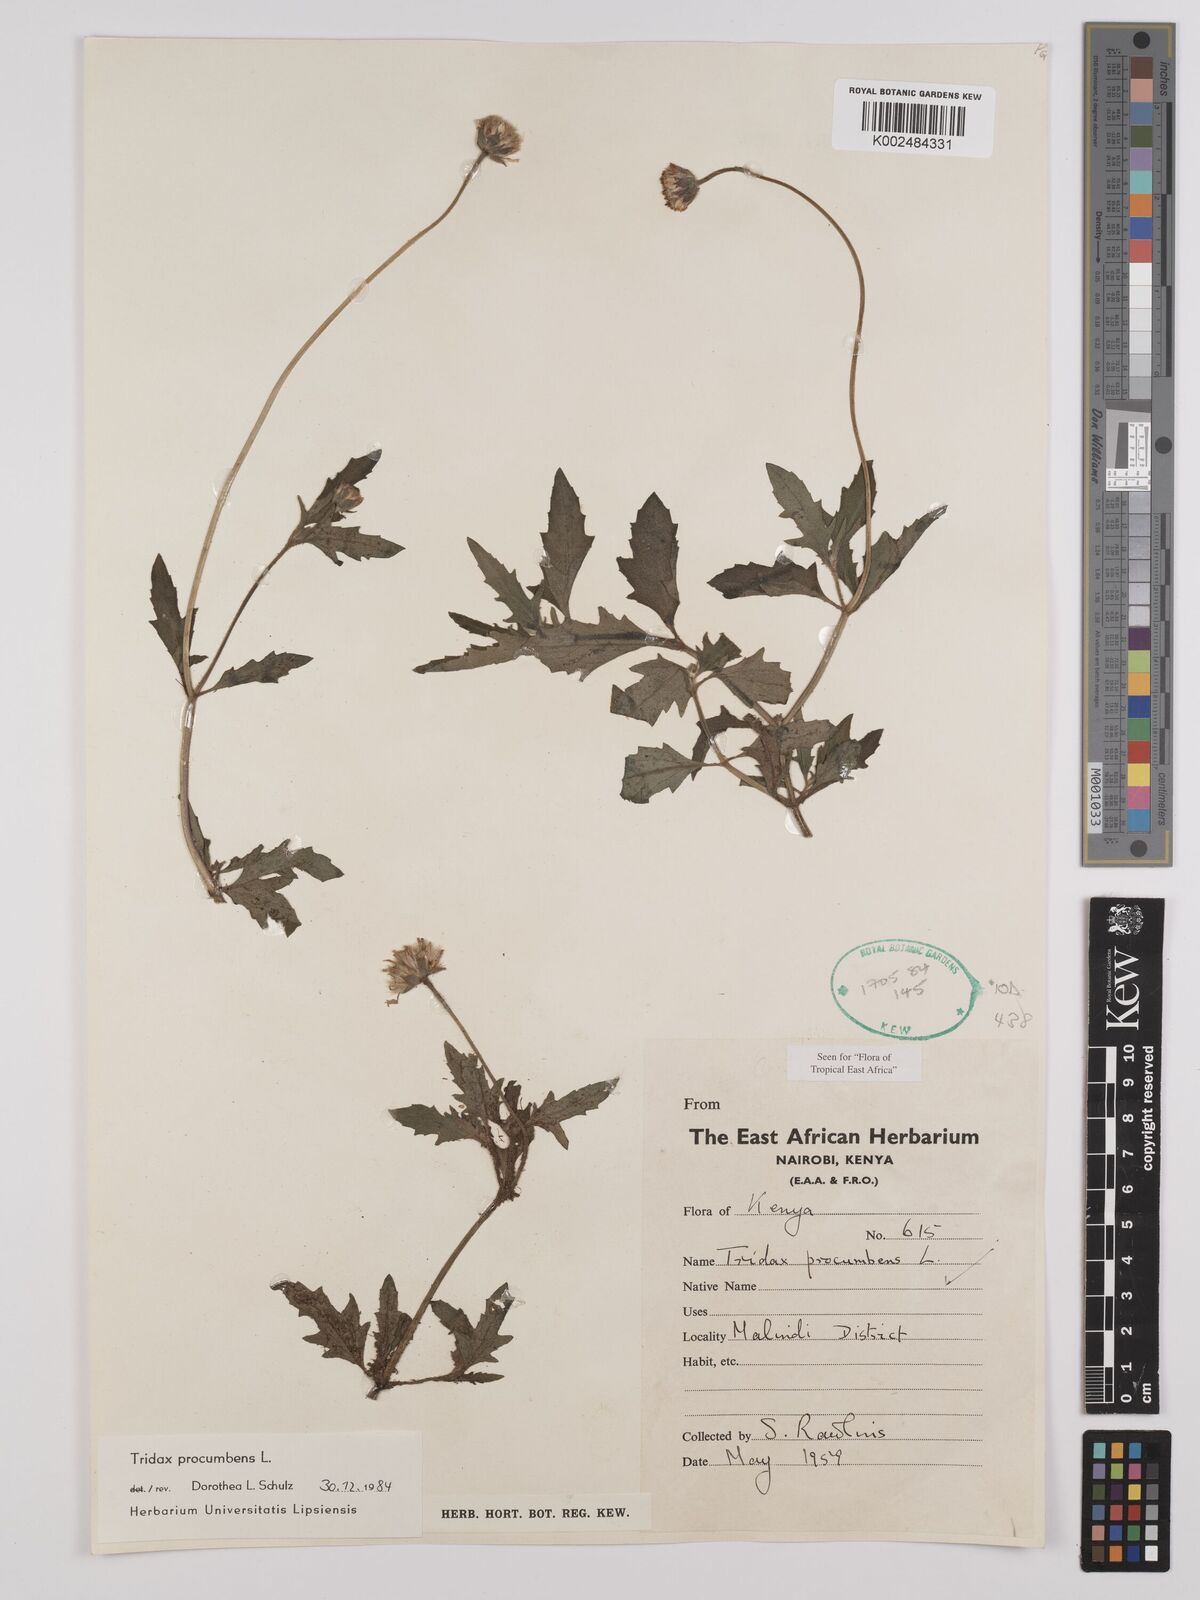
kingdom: Plantae
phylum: Tracheophyta
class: Magnoliopsida
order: Asterales
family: Asteraceae
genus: Tridax
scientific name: Tridax procumbens
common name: Coatbuttons
